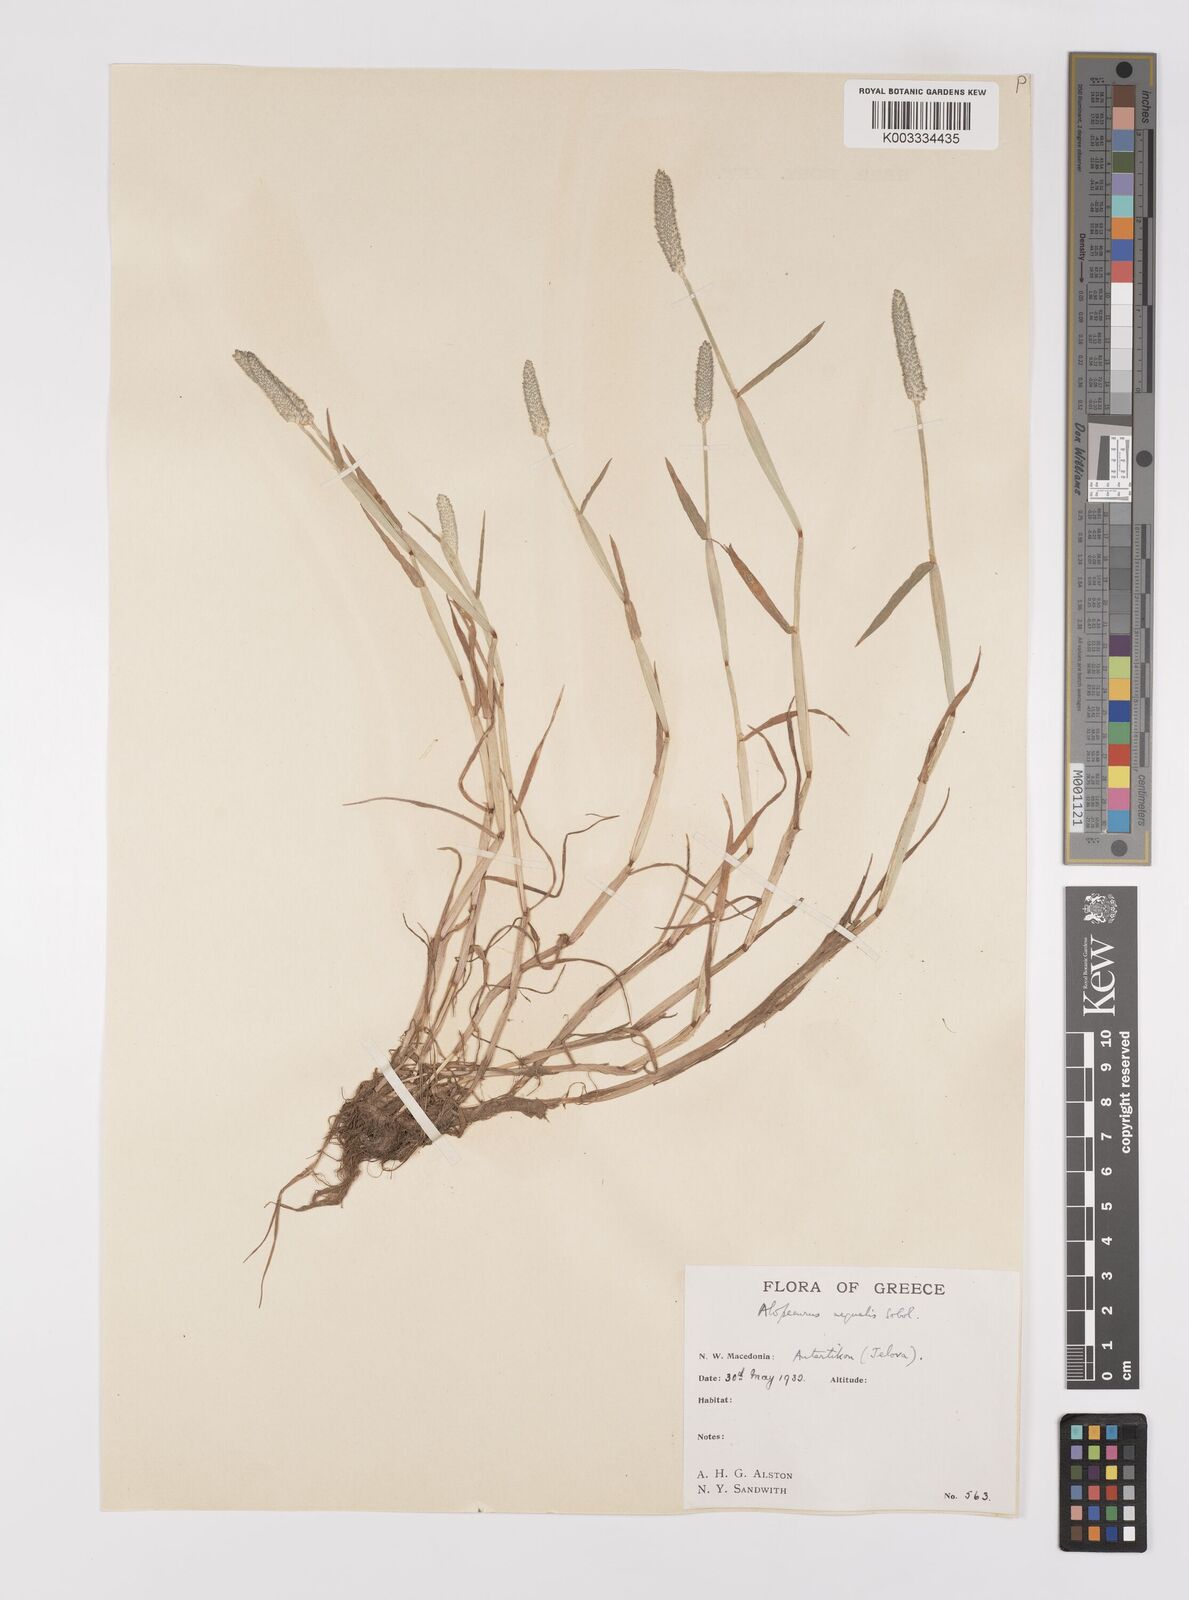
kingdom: Plantae
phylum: Tracheophyta
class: Liliopsida
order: Poales
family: Poaceae
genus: Alopecurus
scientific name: Alopecurus aequalis
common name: Orange foxtail
